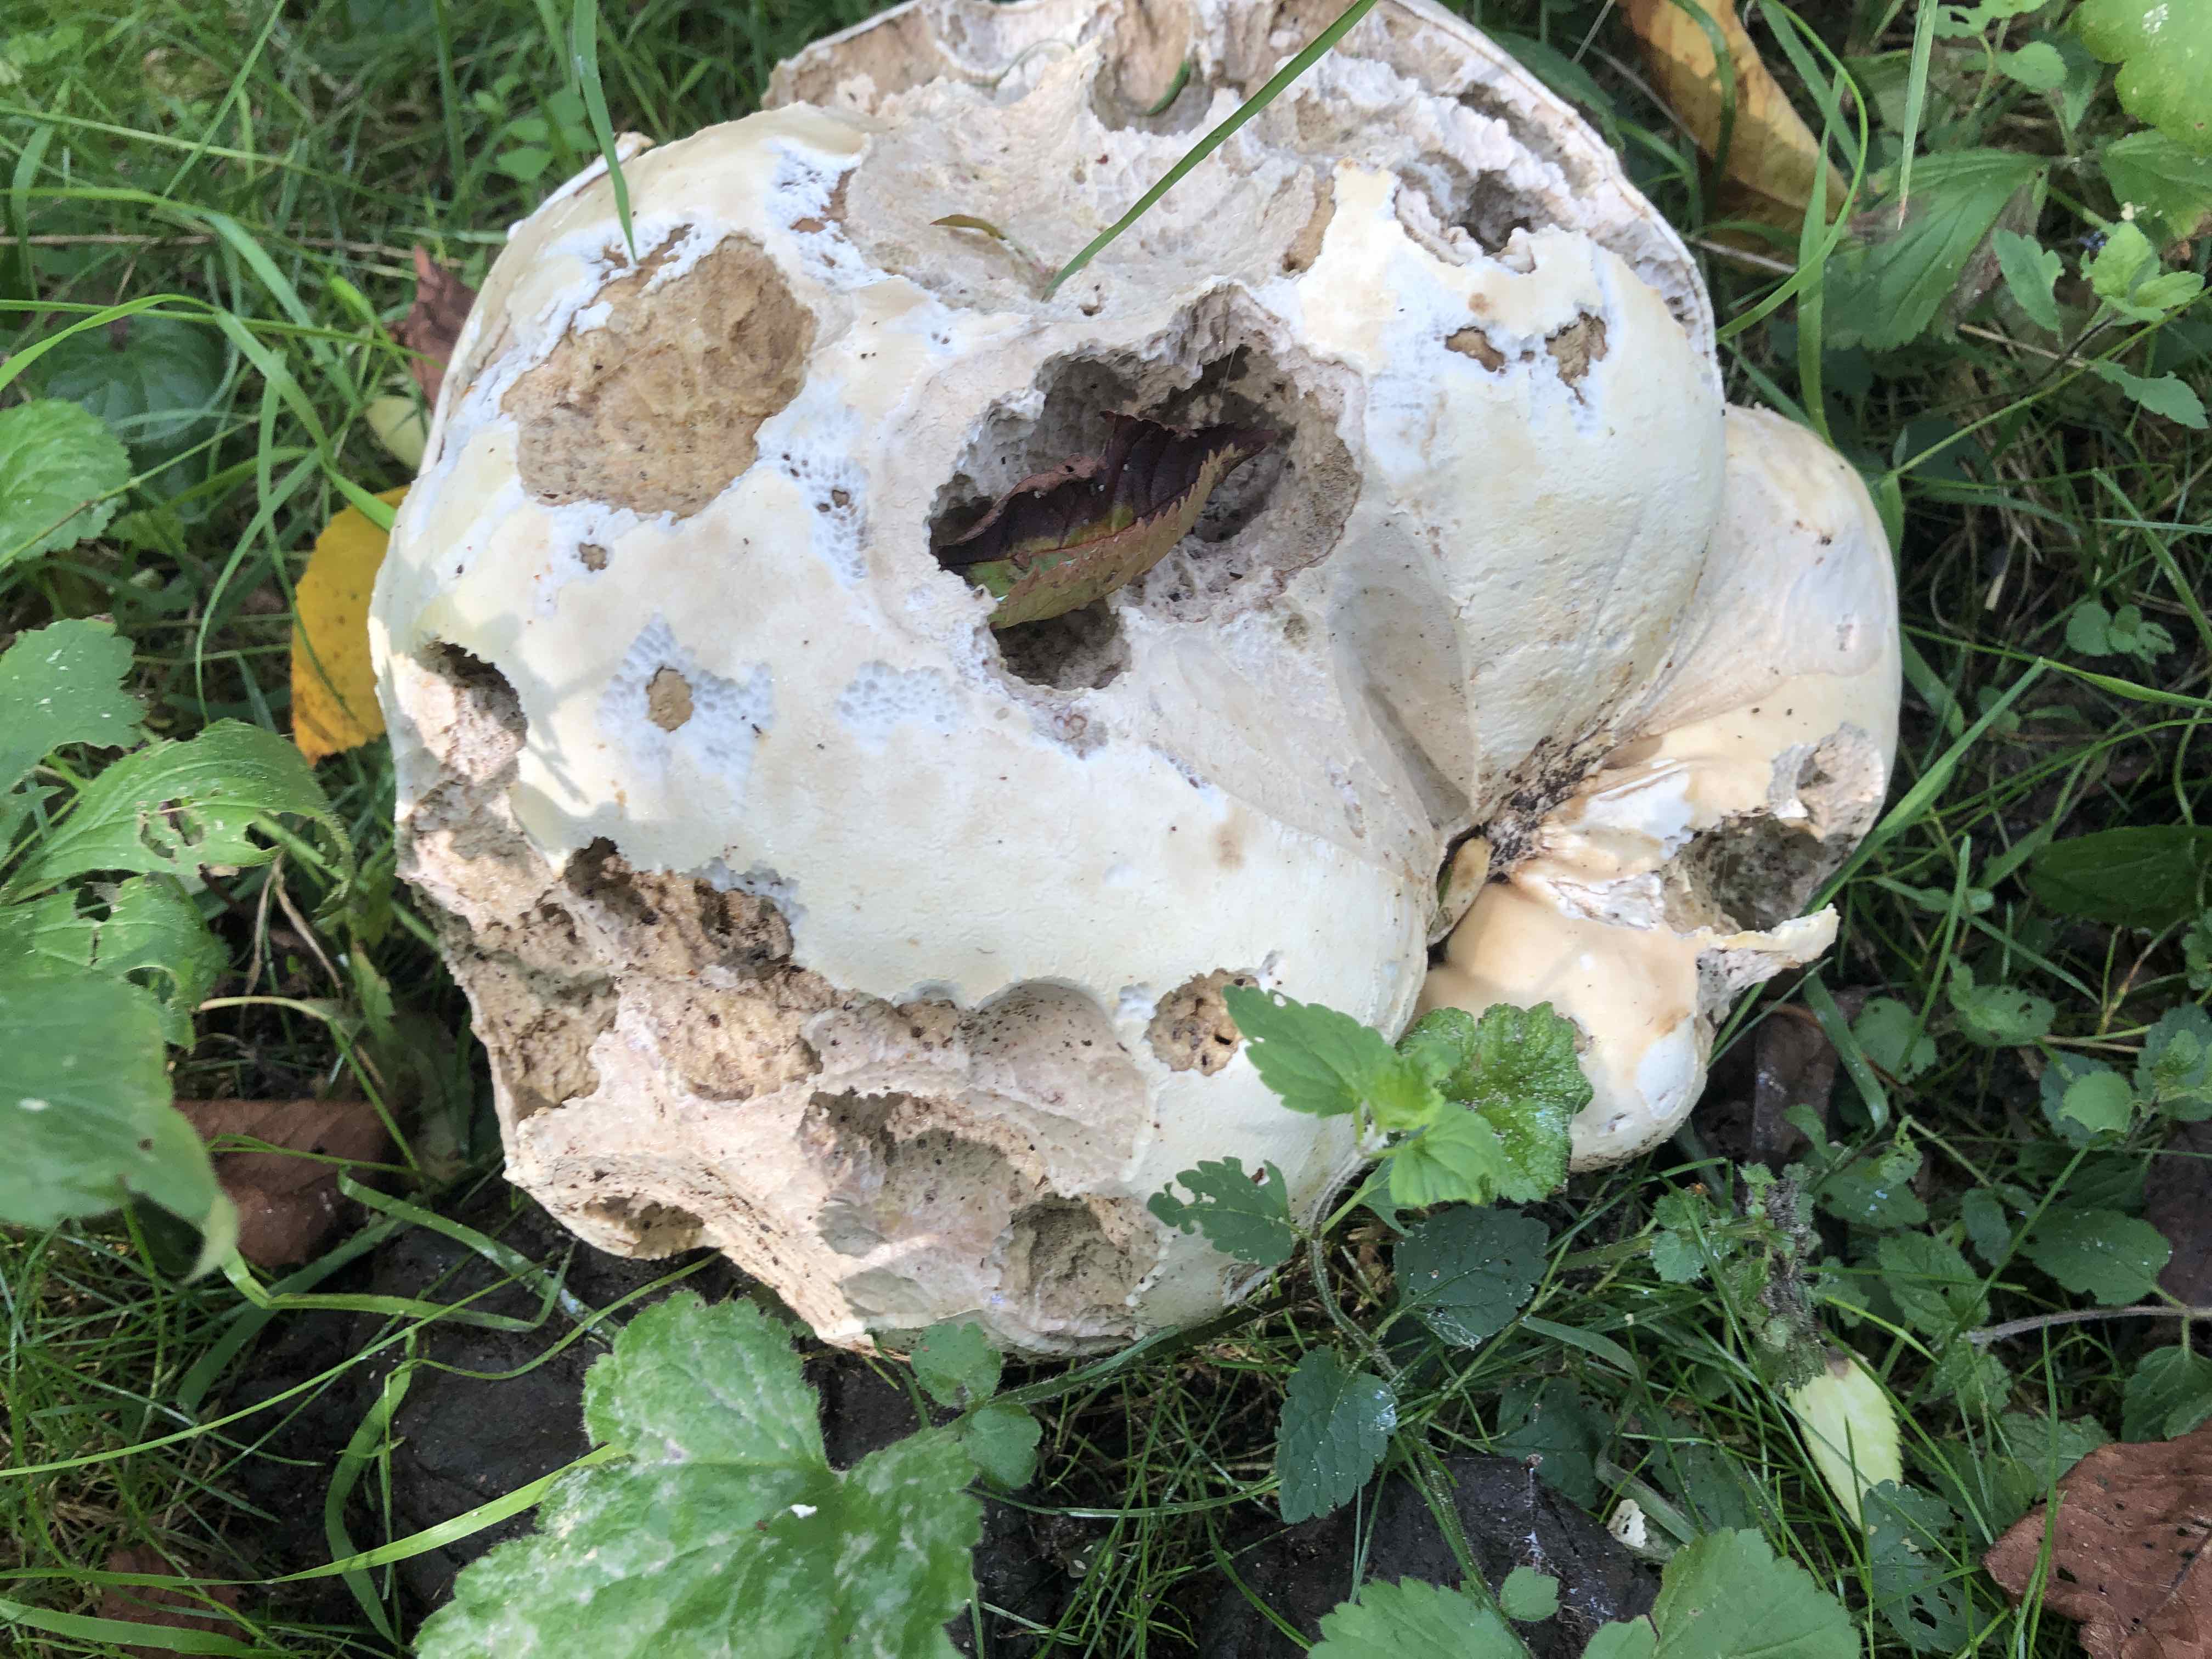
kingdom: Fungi
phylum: Basidiomycota
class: Agaricomycetes
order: Agaricales
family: Lycoperdaceae
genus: Calvatia
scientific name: Calvatia gigantea
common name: kæmpestøvbold
